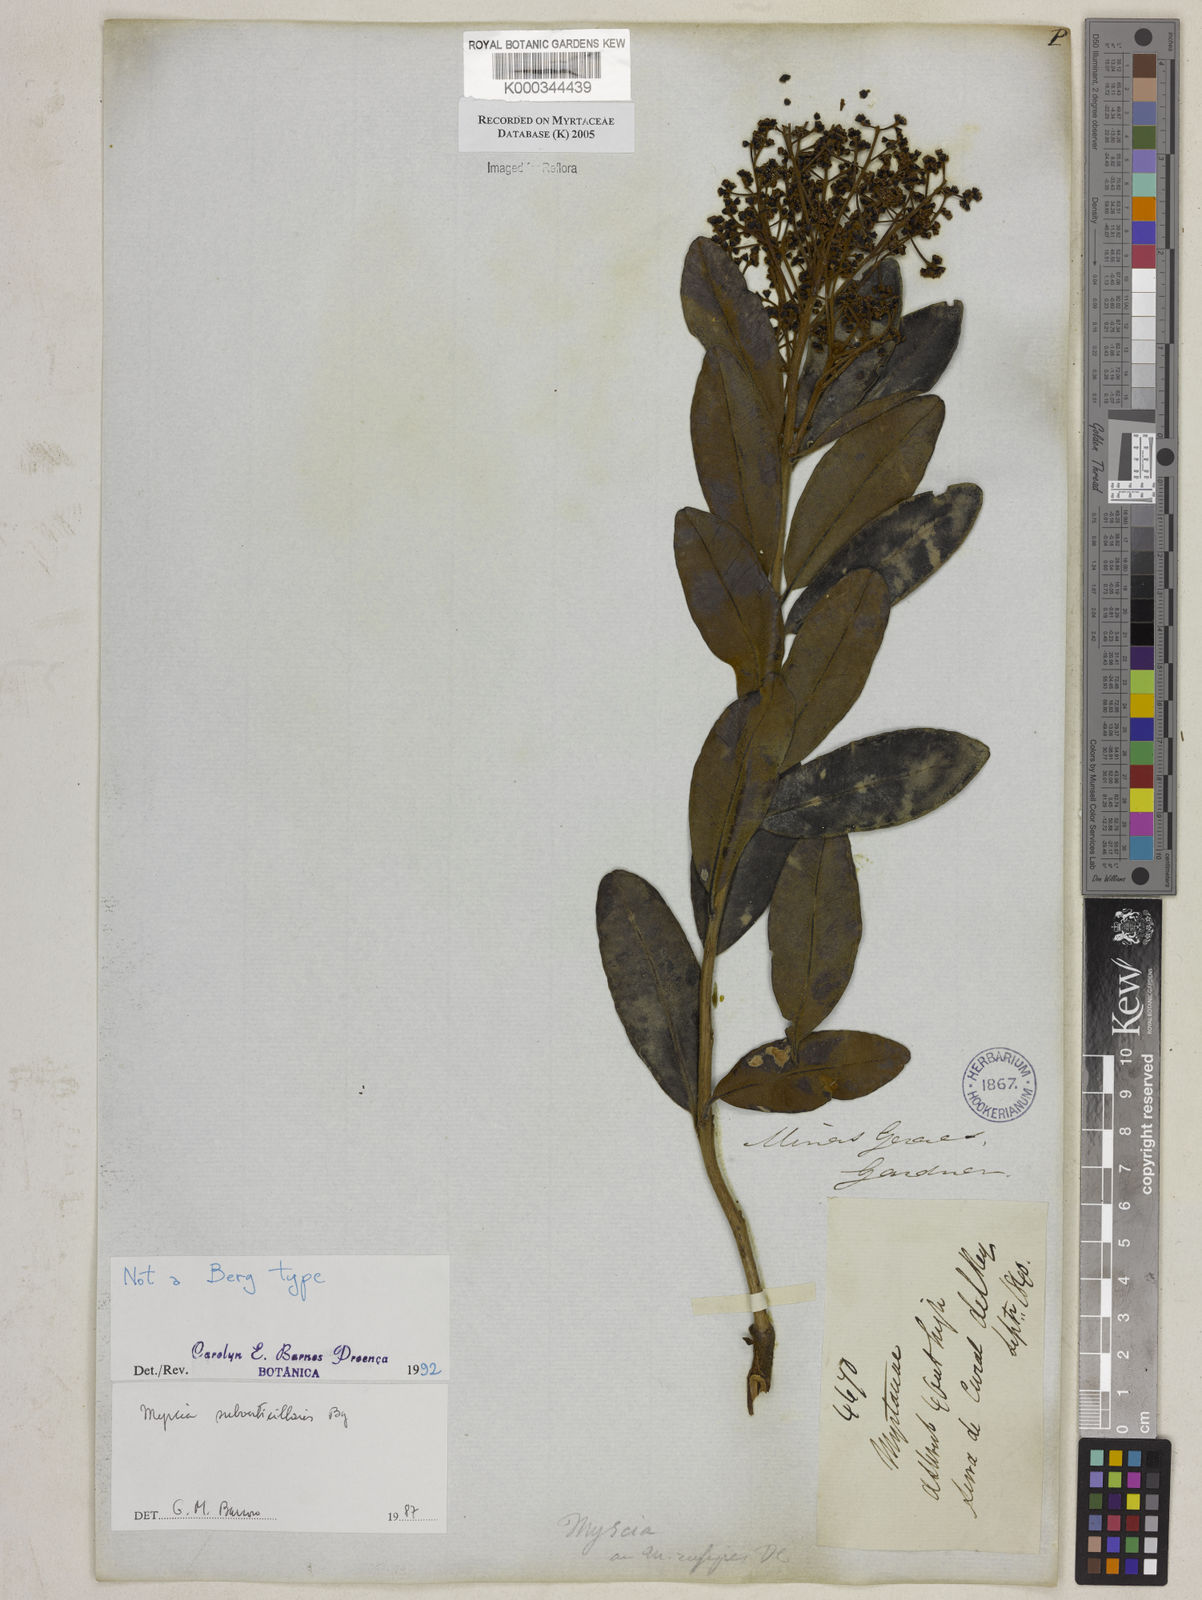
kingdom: Plantae
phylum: Tracheophyta
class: Magnoliopsida
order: Myrtales
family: Myrtaceae
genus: Myrcia
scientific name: Myrcia
